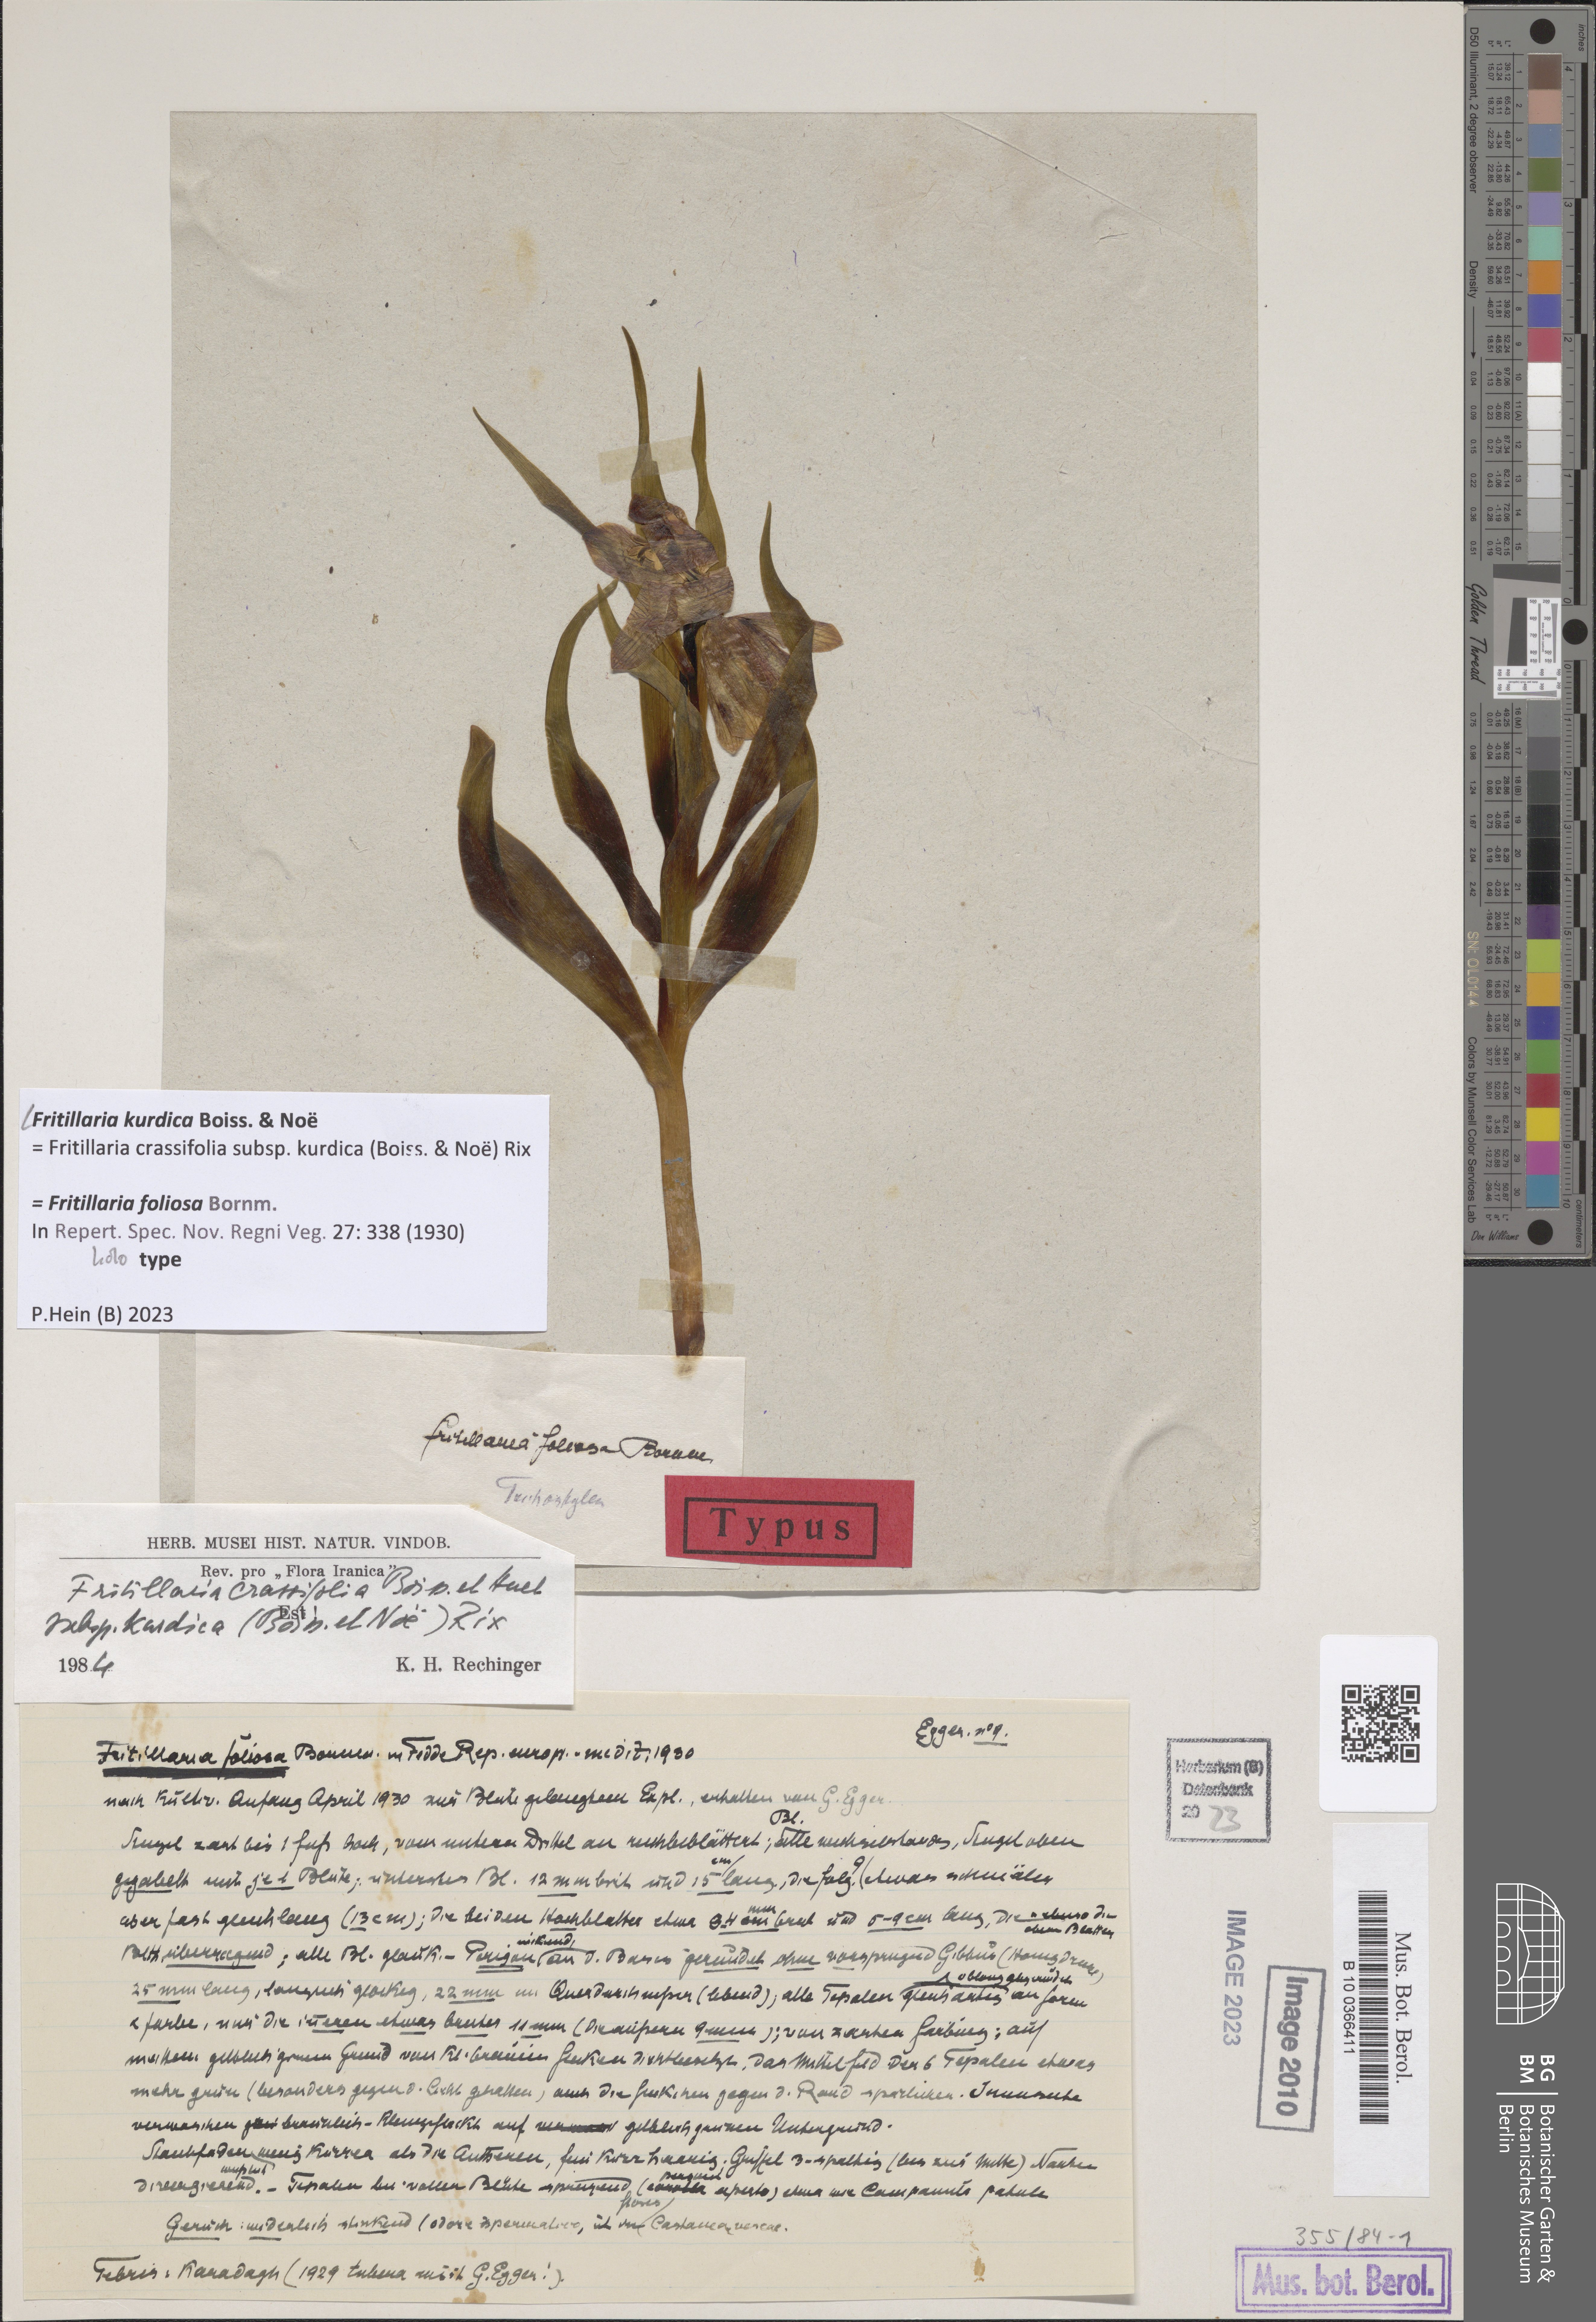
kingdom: Plantae
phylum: Tracheophyta
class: Liliopsida
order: Liliales
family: Liliaceae
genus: Fritillaria
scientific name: Fritillaria kurdica
